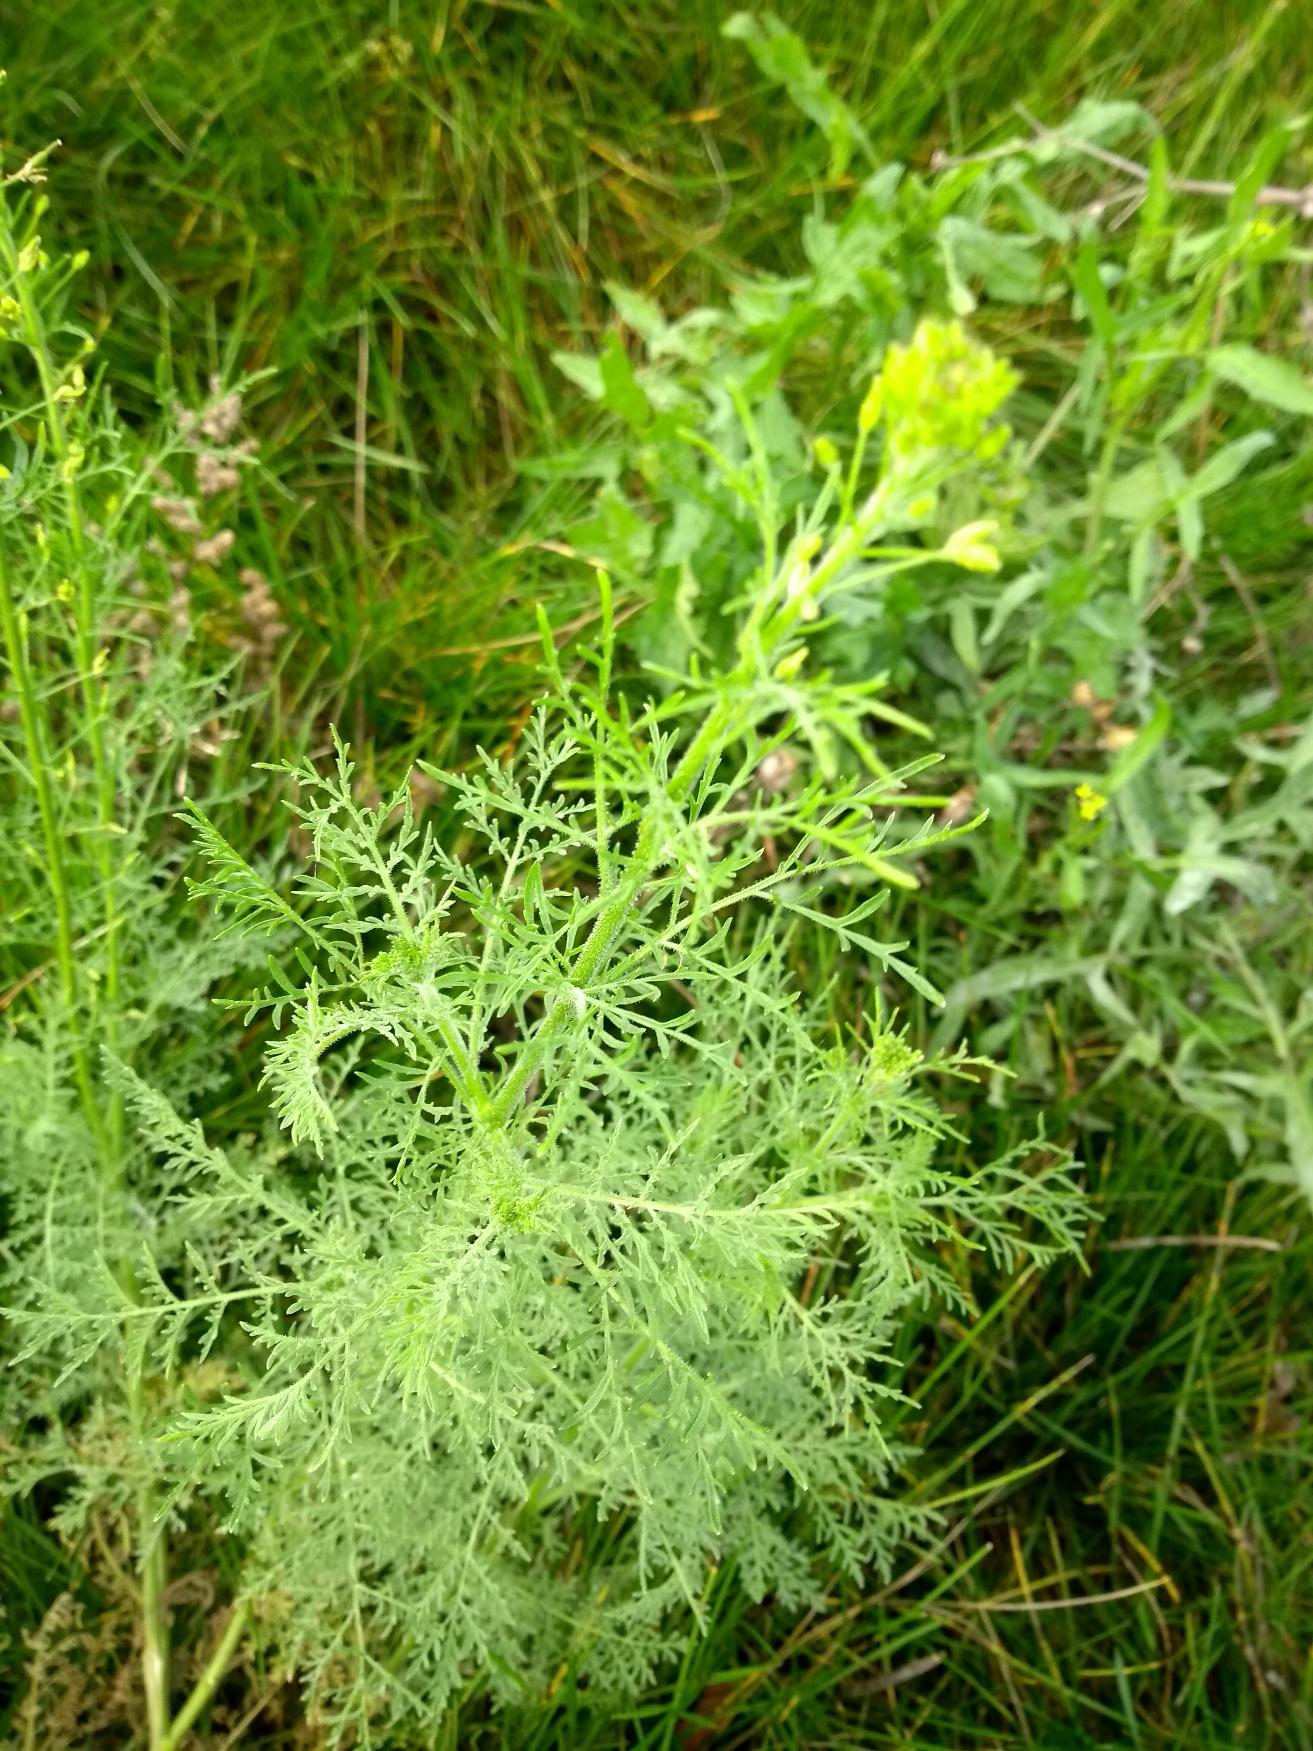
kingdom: Plantae
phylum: Tracheophyta
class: Magnoliopsida
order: Brassicales
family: Brassicaceae
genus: Descurainia
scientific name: Descurainia sophia
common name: Finbladet vejsennep
